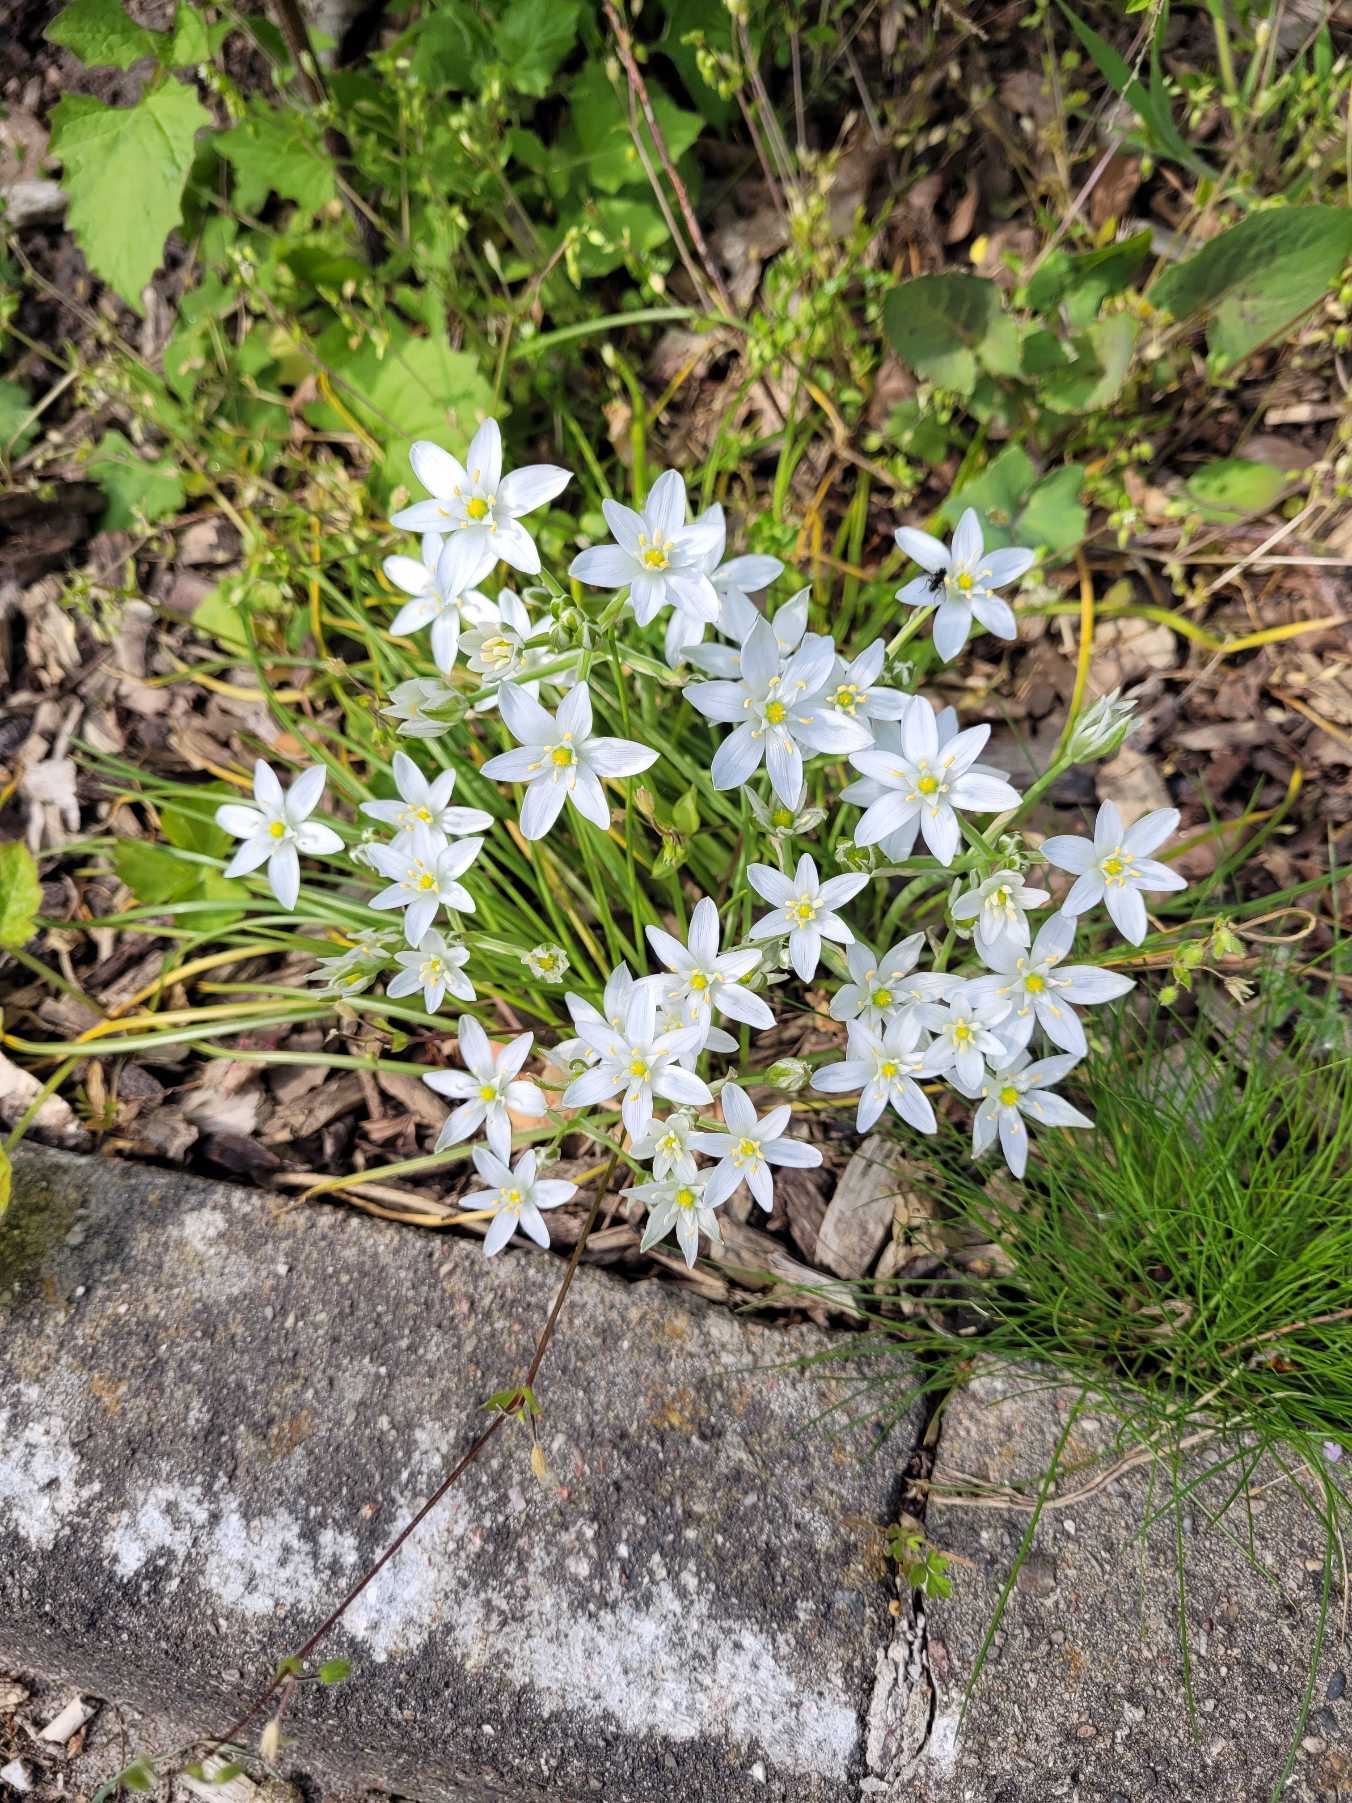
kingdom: Plantae
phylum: Tracheophyta
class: Liliopsida
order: Asparagales
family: Asparagaceae
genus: Ornithogalum
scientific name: Ornithogalum umbellatum
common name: Kost-fuglemælk
